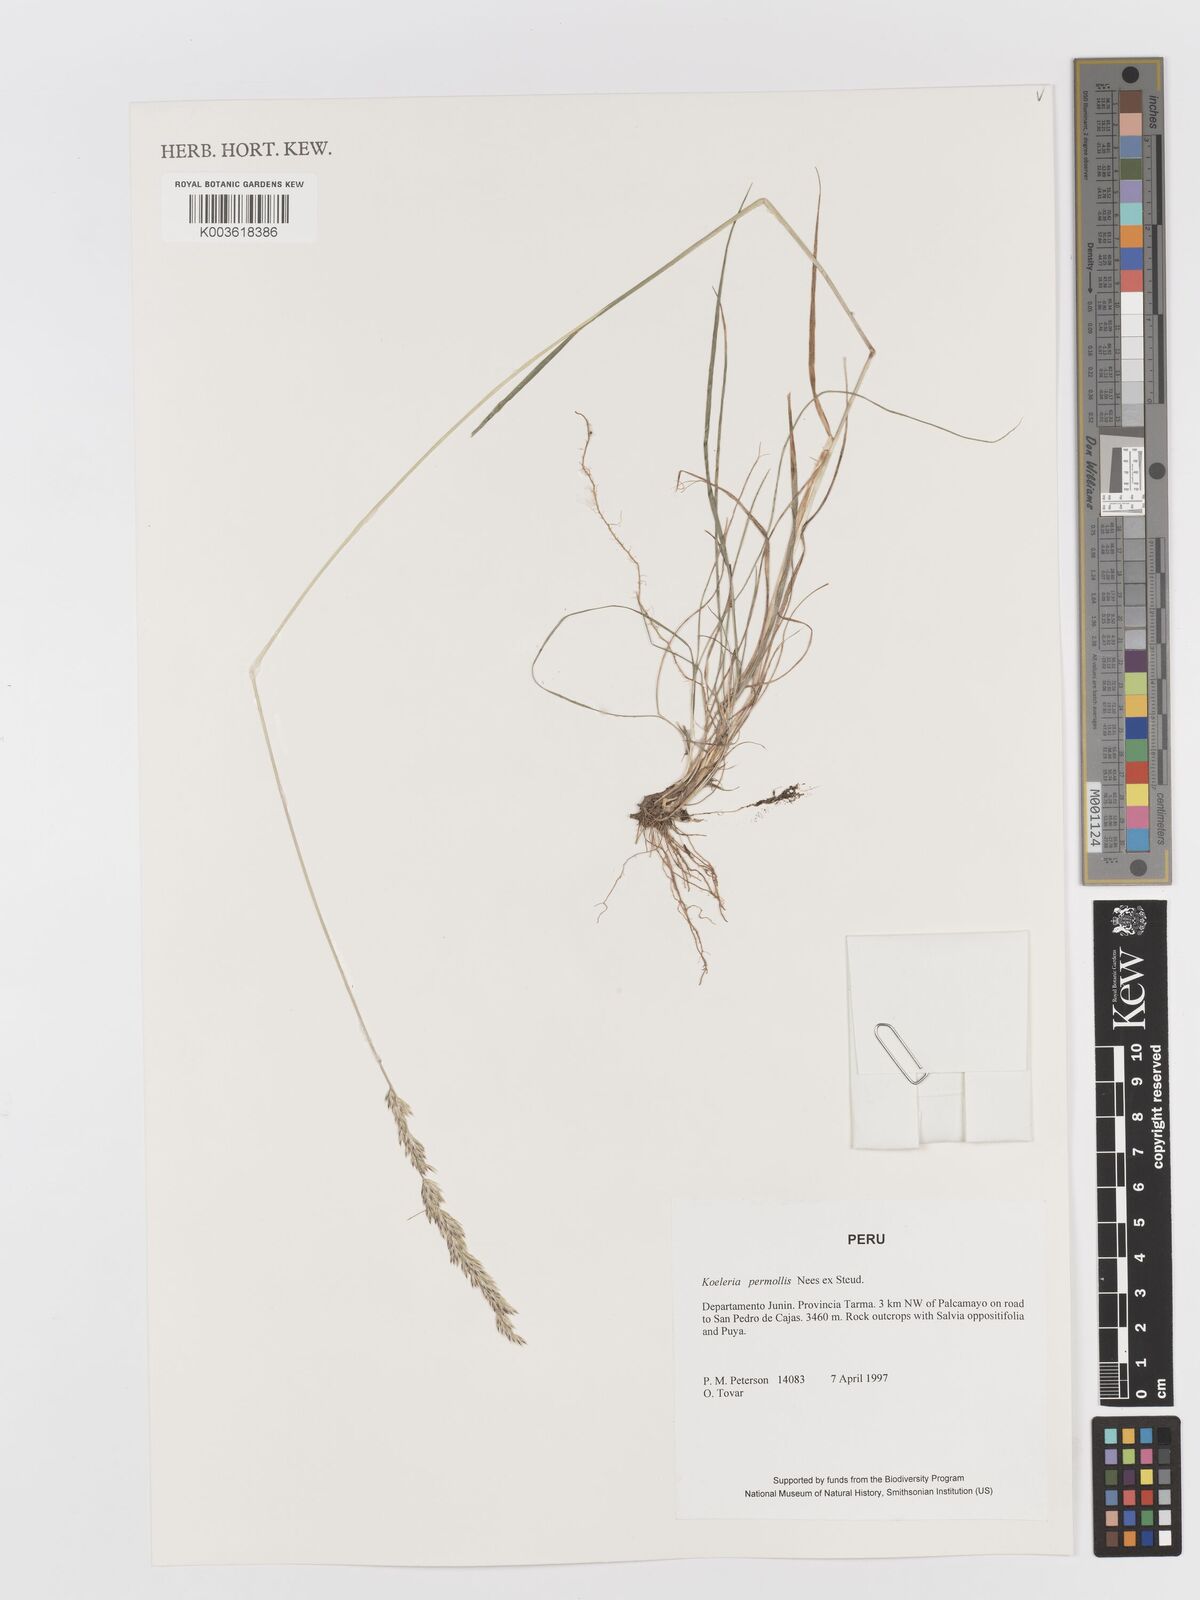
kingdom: Plantae
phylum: Tracheophyta
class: Liliopsida
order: Poales
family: Poaceae
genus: Koeleria
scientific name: Koeleria permollis
